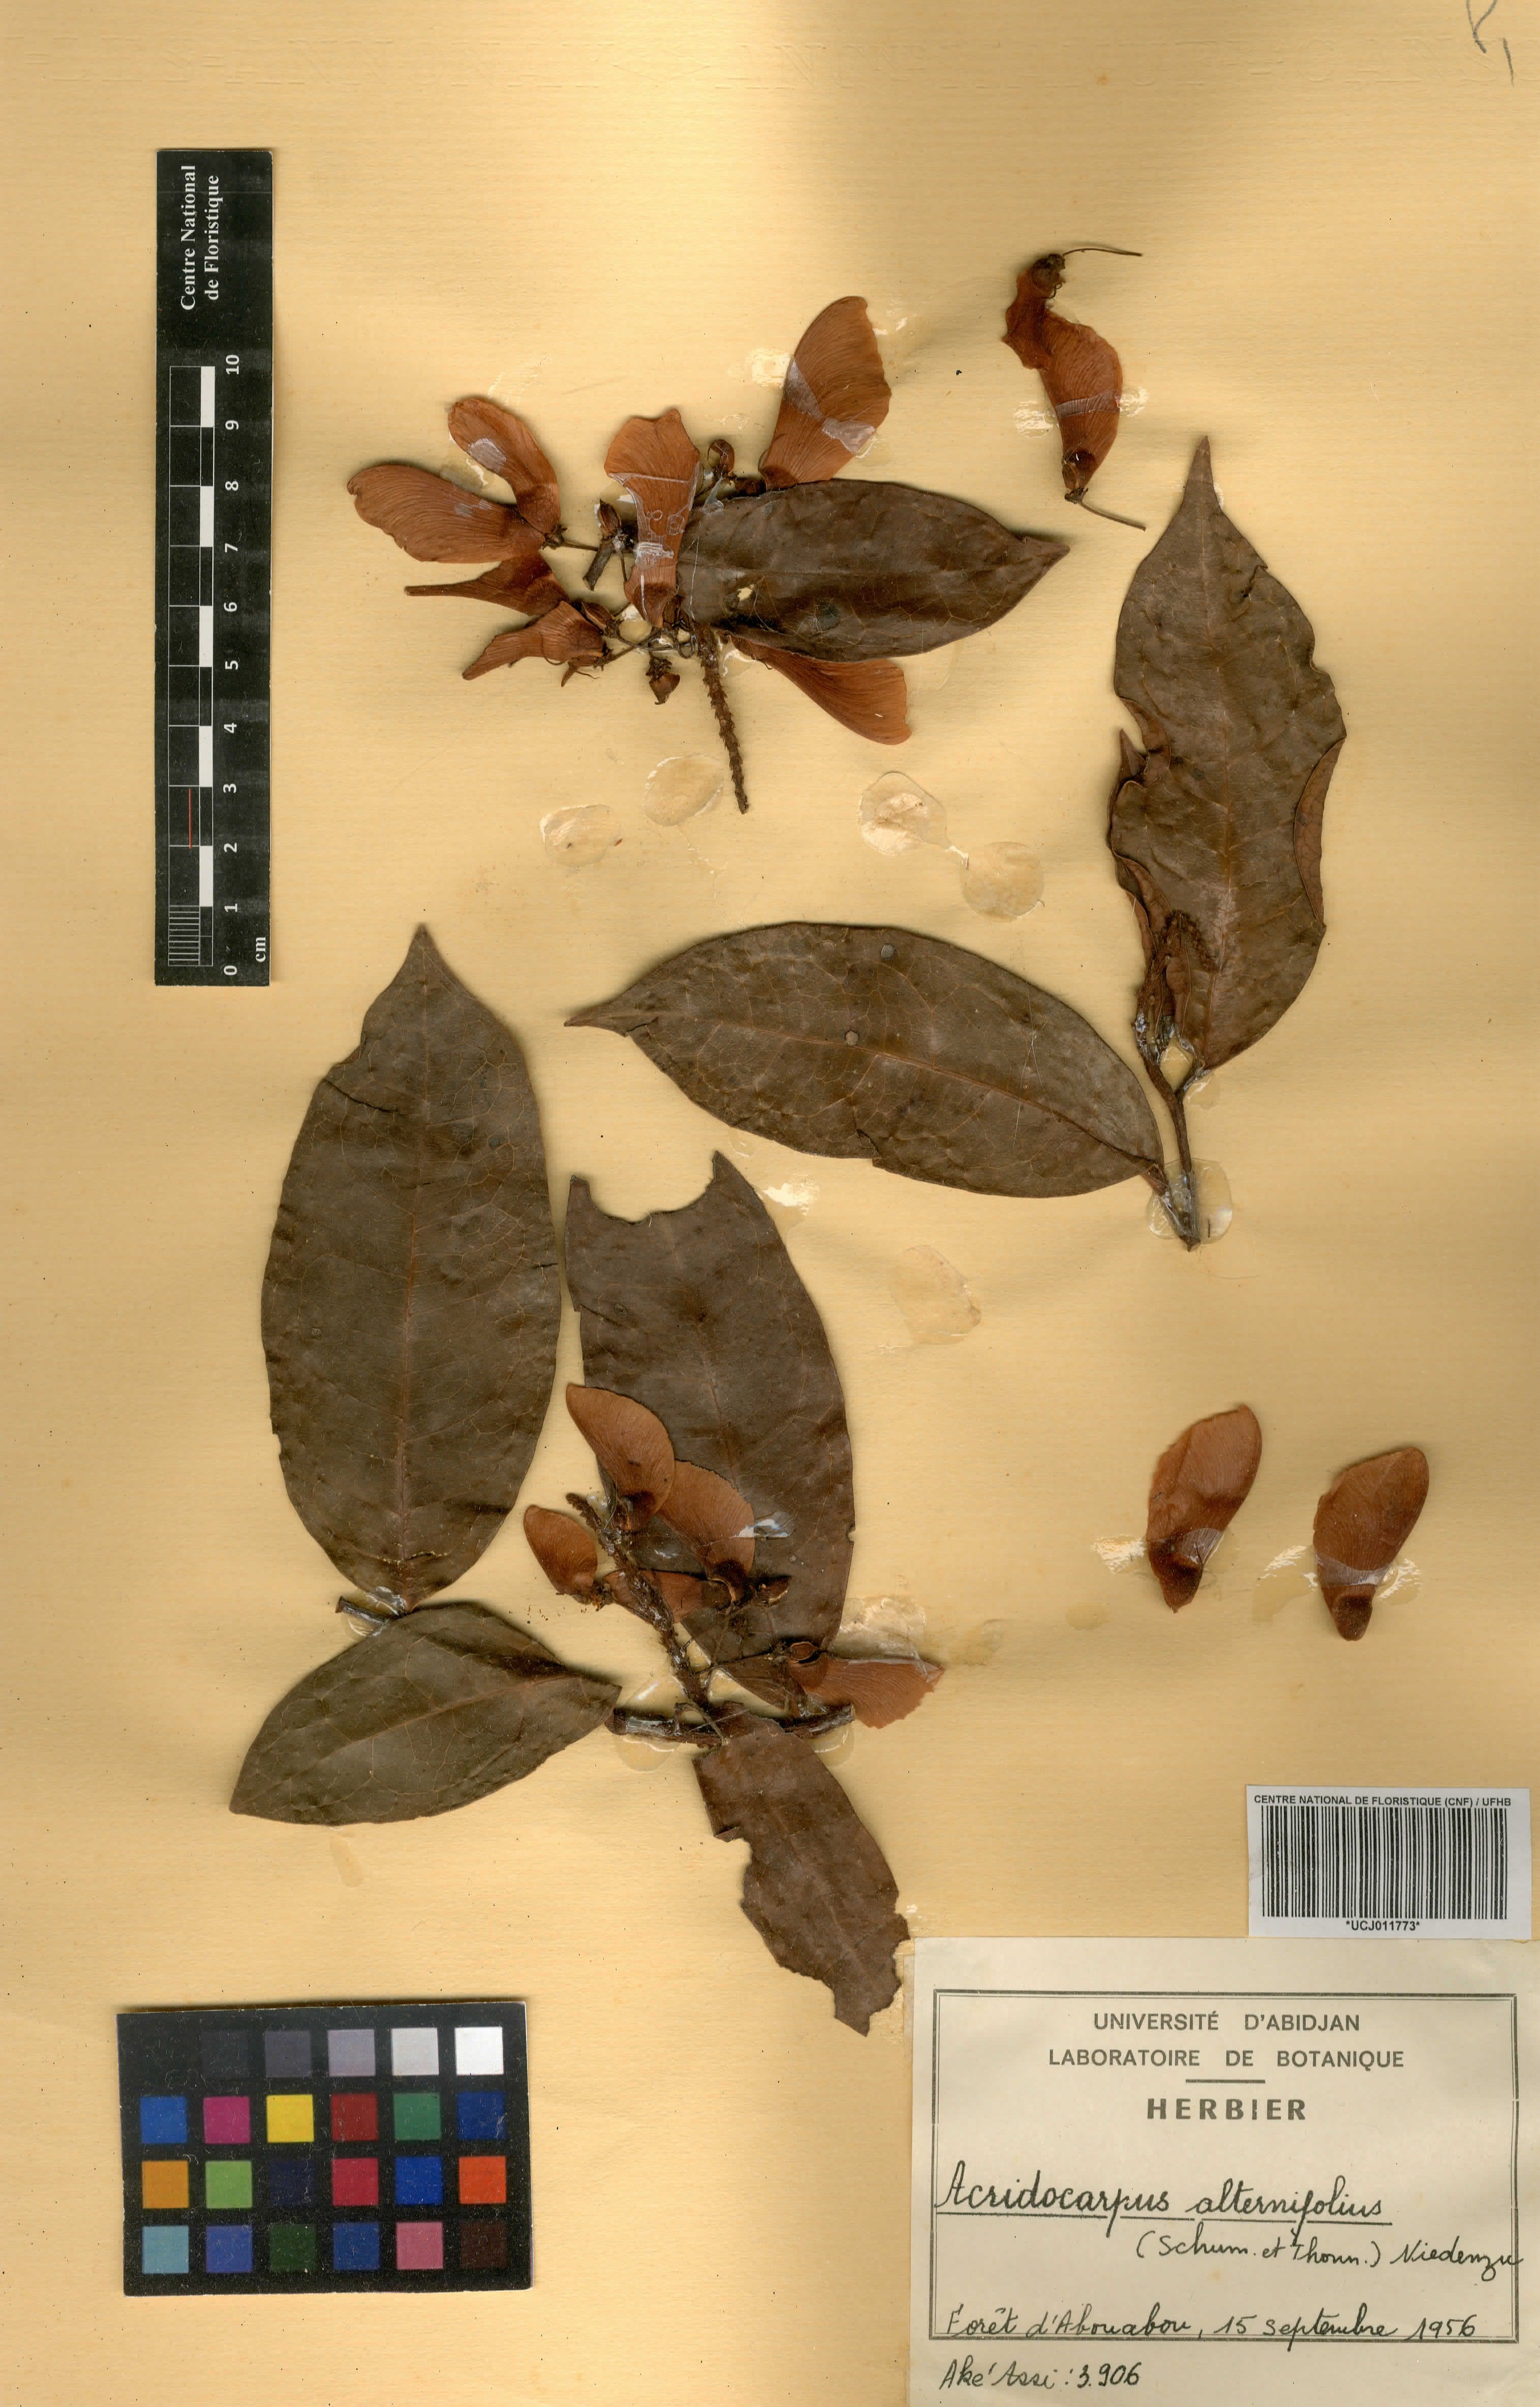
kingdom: Plantae
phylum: Tracheophyta
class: Magnoliopsida
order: Malpighiales
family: Malpighiaceae
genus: Acridocarpus
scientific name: Acridocarpus alternifolius
